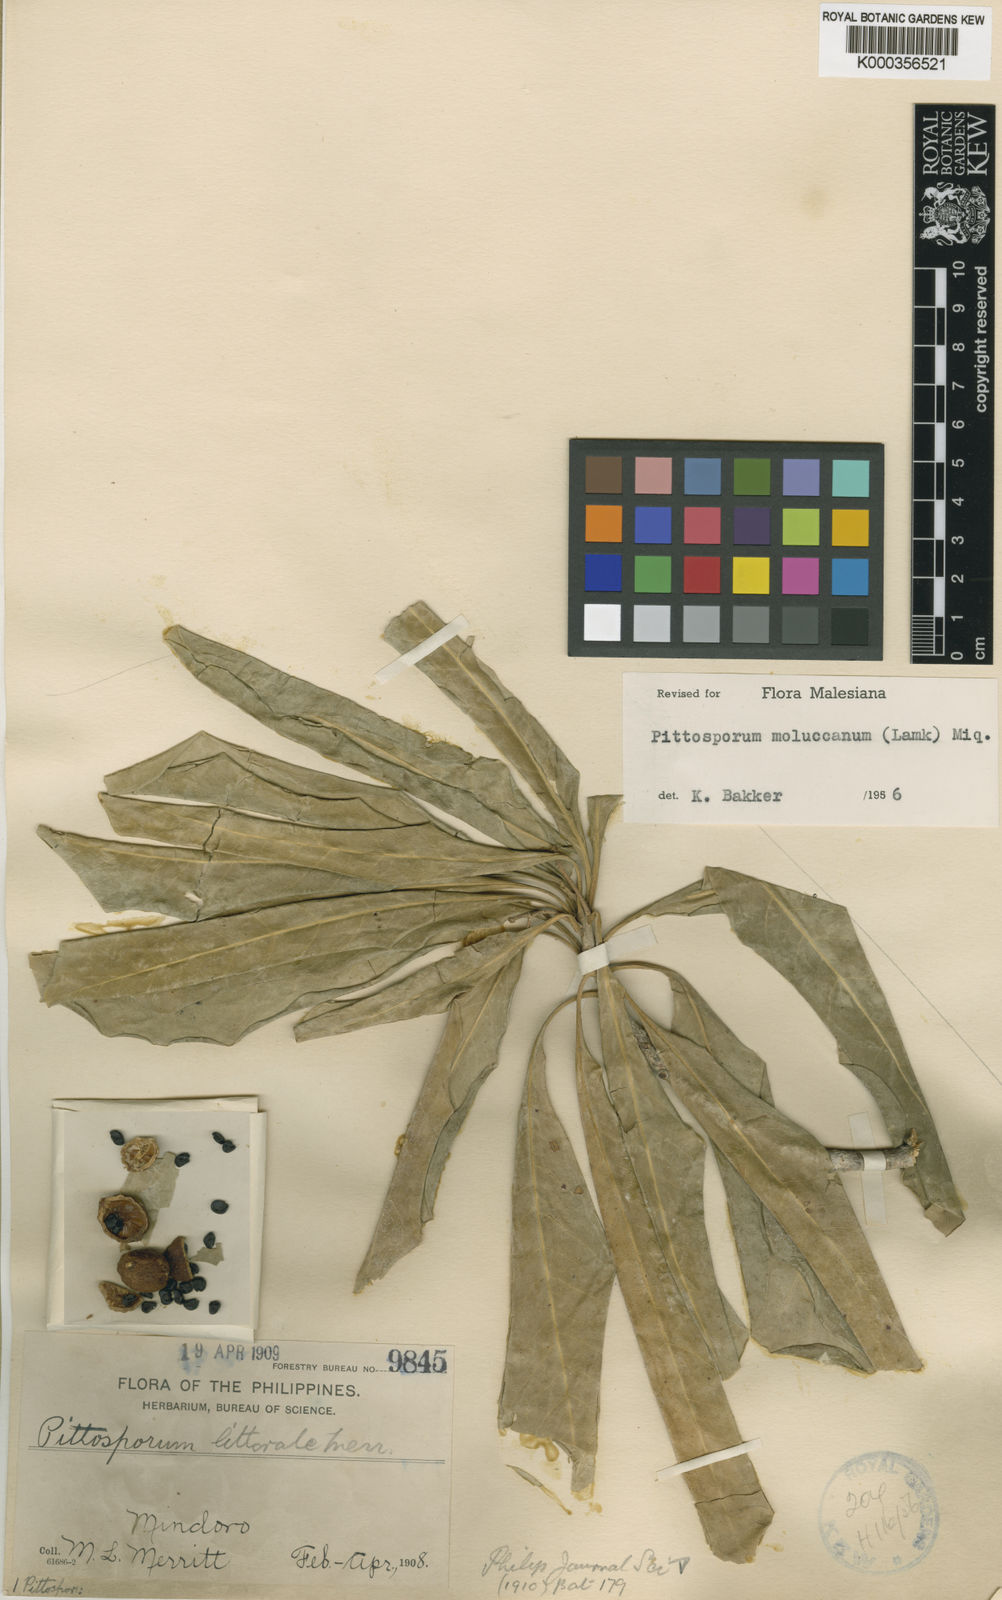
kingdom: Plantae
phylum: Tracheophyta
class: Magnoliopsida
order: Apiales
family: Pittosporaceae
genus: Pittosporum
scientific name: Pittosporum moluccanum
